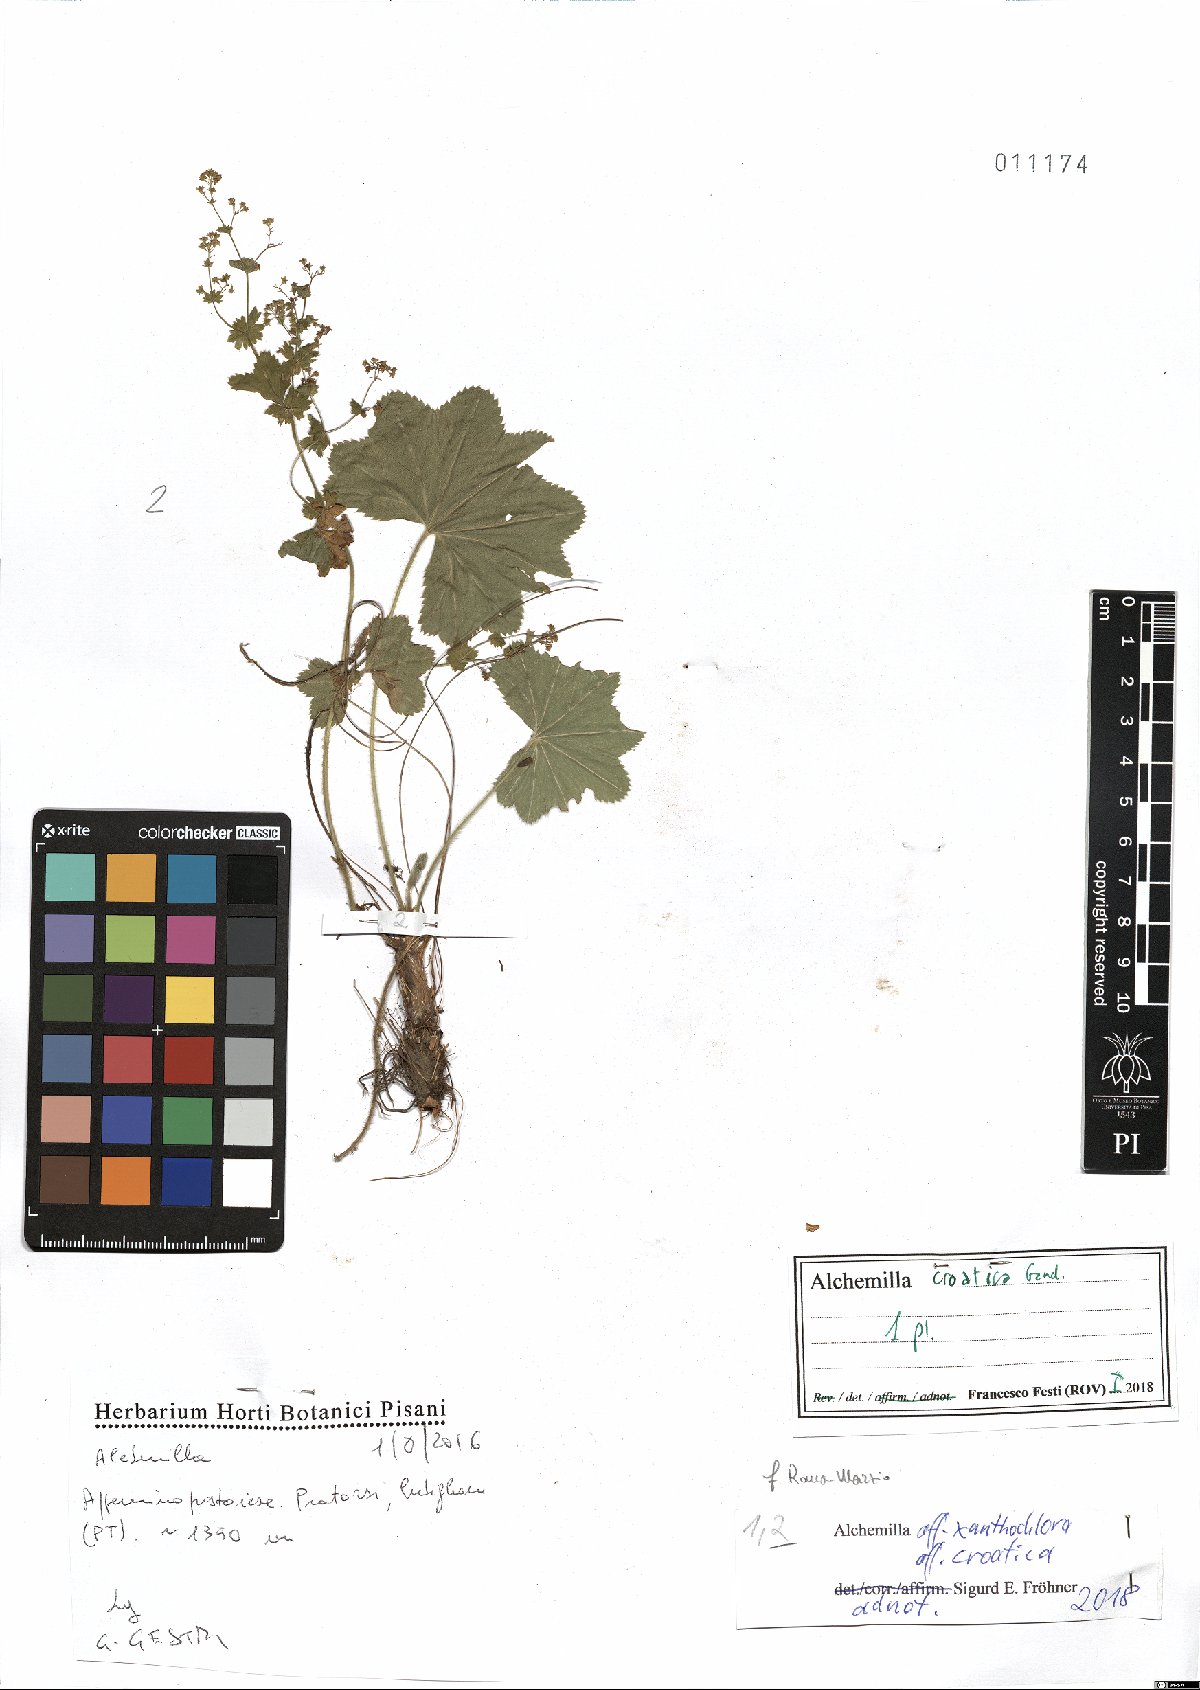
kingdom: Plantae
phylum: Tracheophyta
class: Magnoliopsida
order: Rosales
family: Rosaceae
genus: Alchemilla
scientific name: Alchemilla croatica
